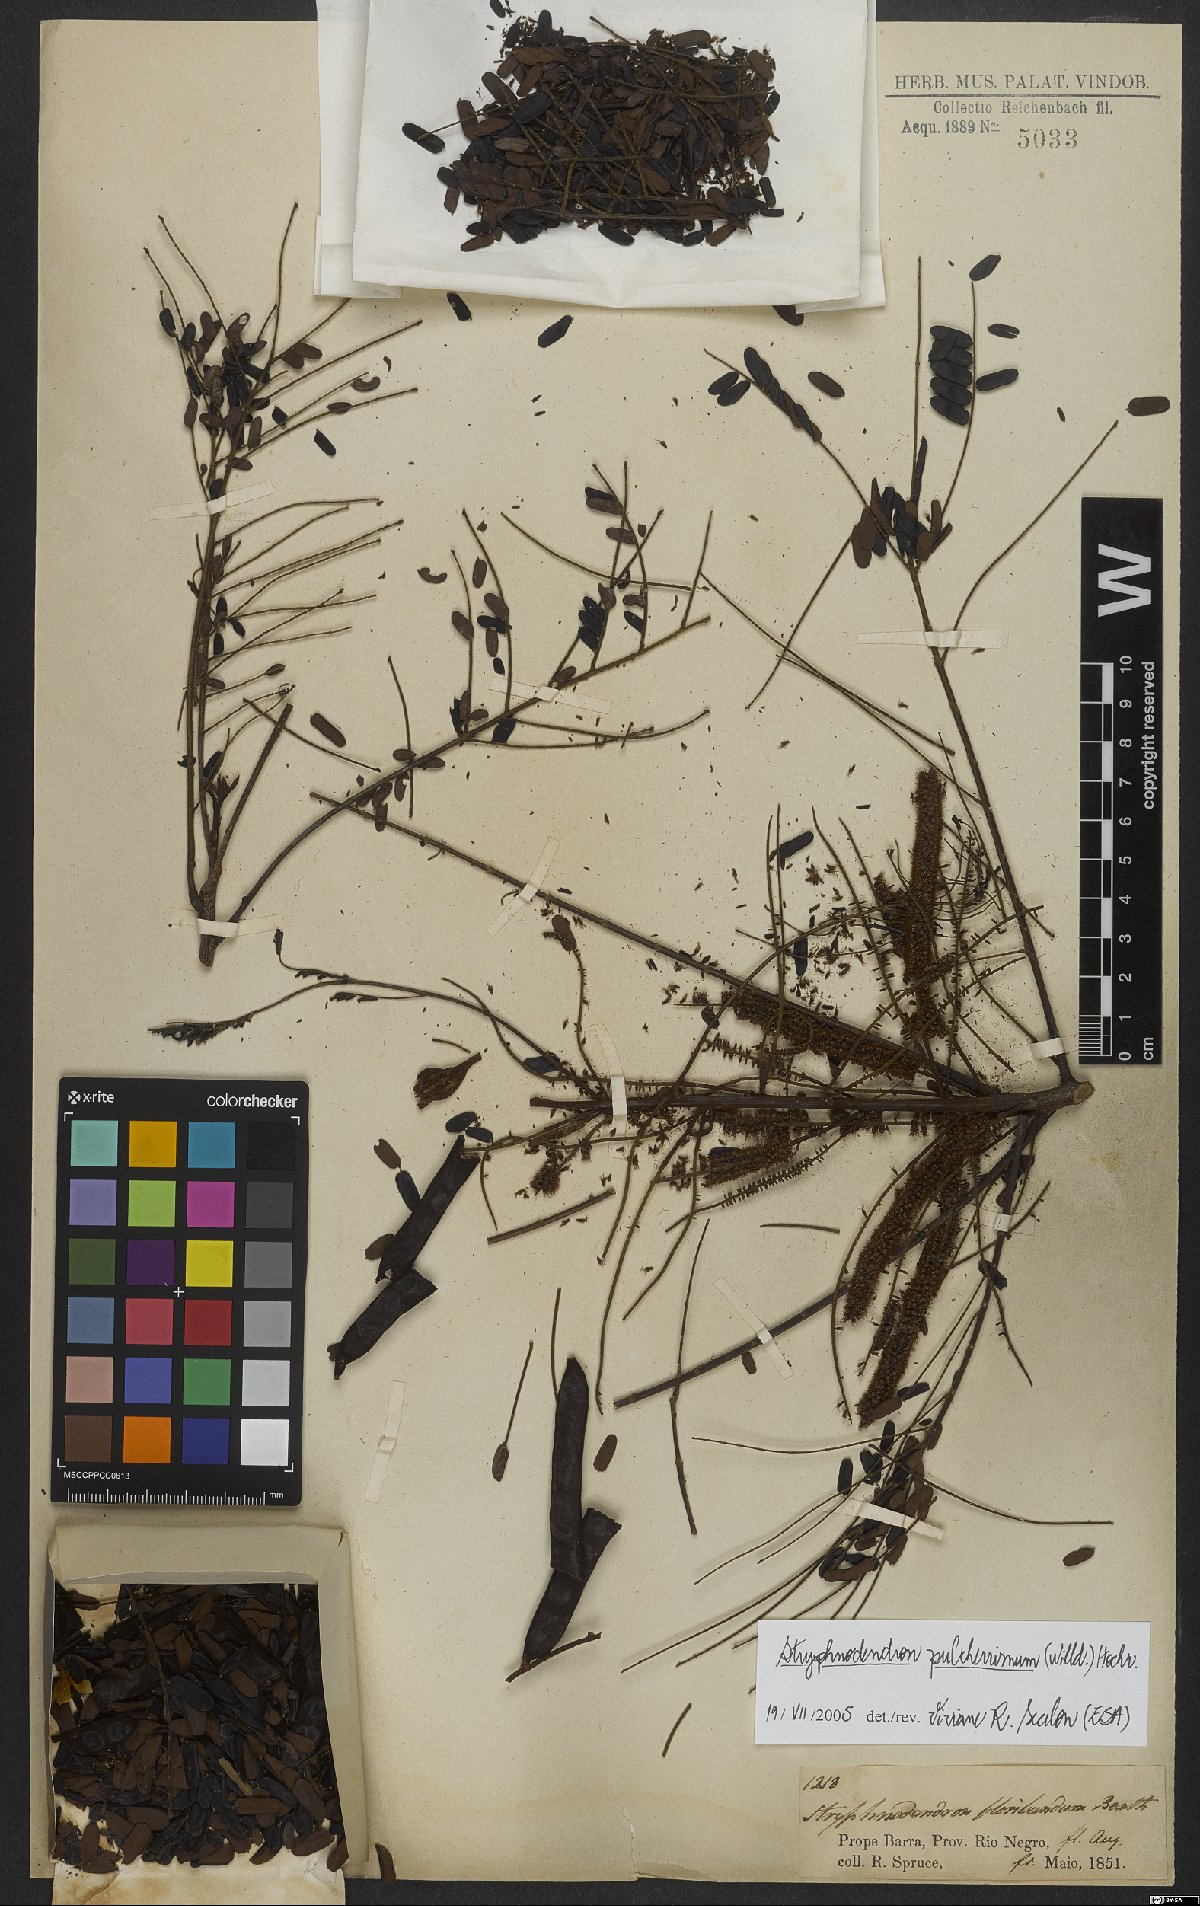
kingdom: Plantae
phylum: Tracheophyta
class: Magnoliopsida
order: Fabales
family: Fabaceae
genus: Stryphnodendron
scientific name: Stryphnodendron pulcherrimum
